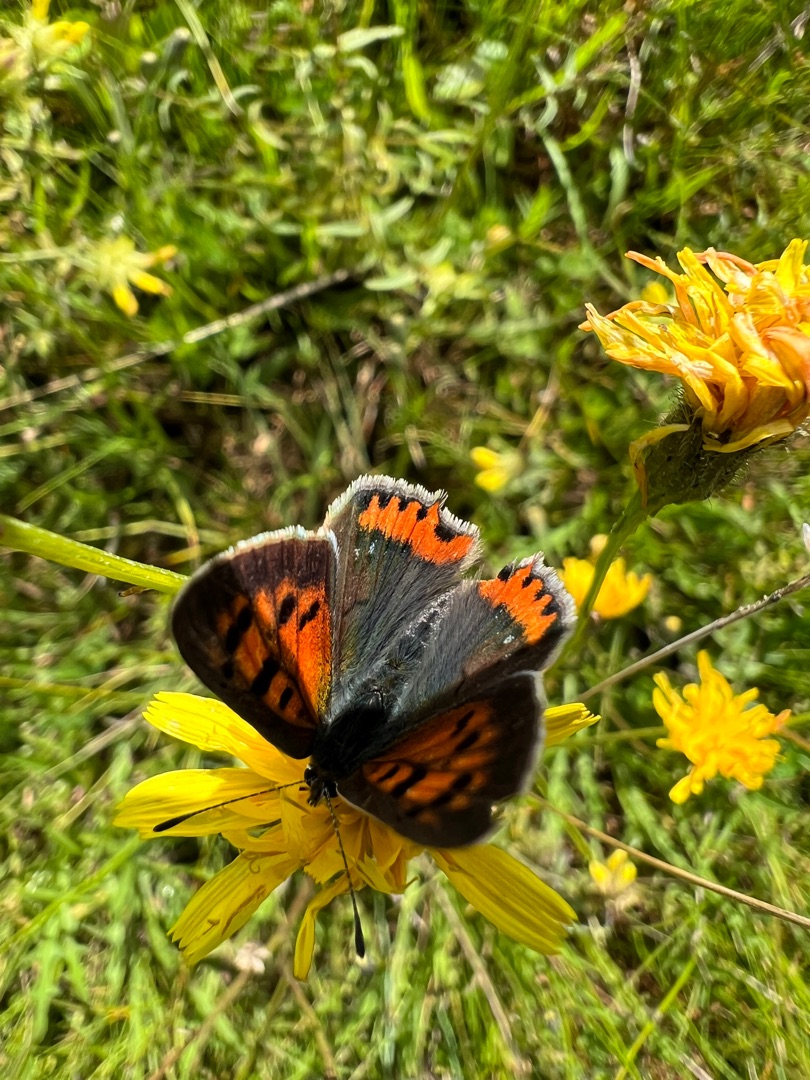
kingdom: Animalia
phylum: Arthropoda
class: Insecta
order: Lepidoptera
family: Lycaenidae
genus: Lycaena
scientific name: Lycaena phlaeas
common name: Lille ildfugl
